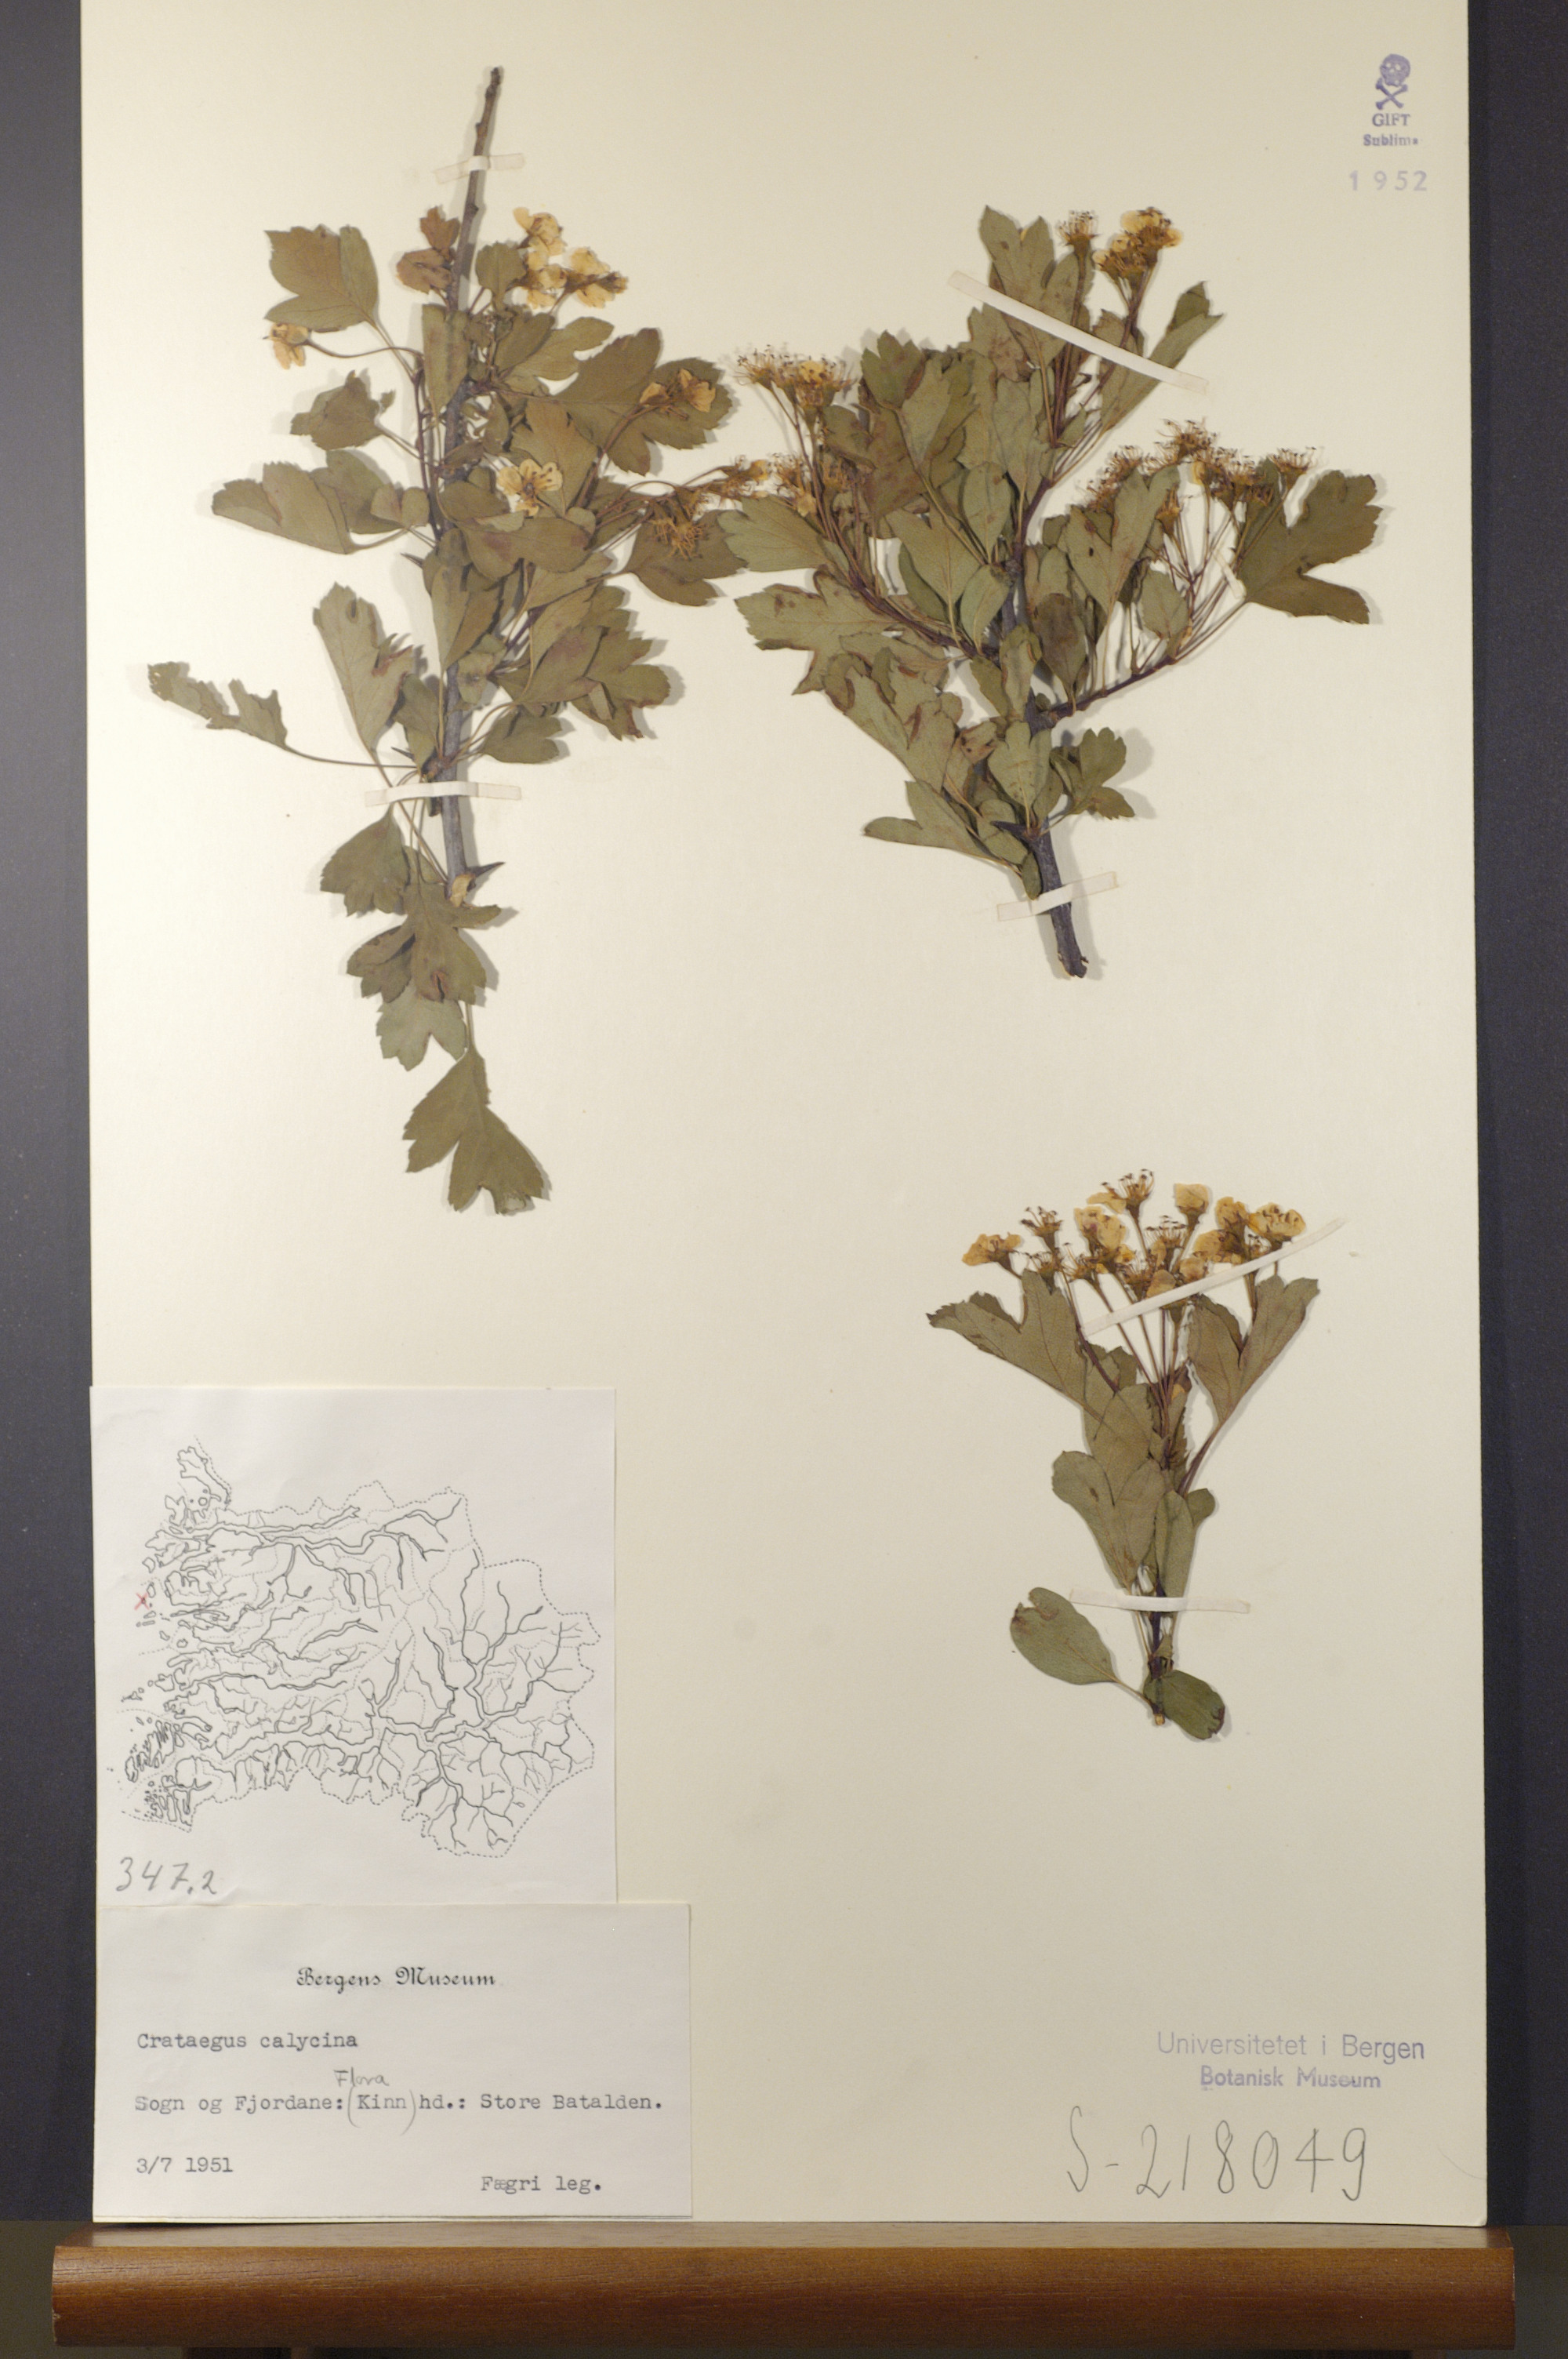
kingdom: Plantae
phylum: Tracheophyta
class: Magnoliopsida
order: Rosales
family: Rosaceae
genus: Crataegus
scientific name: Crataegus rhipidophylla
